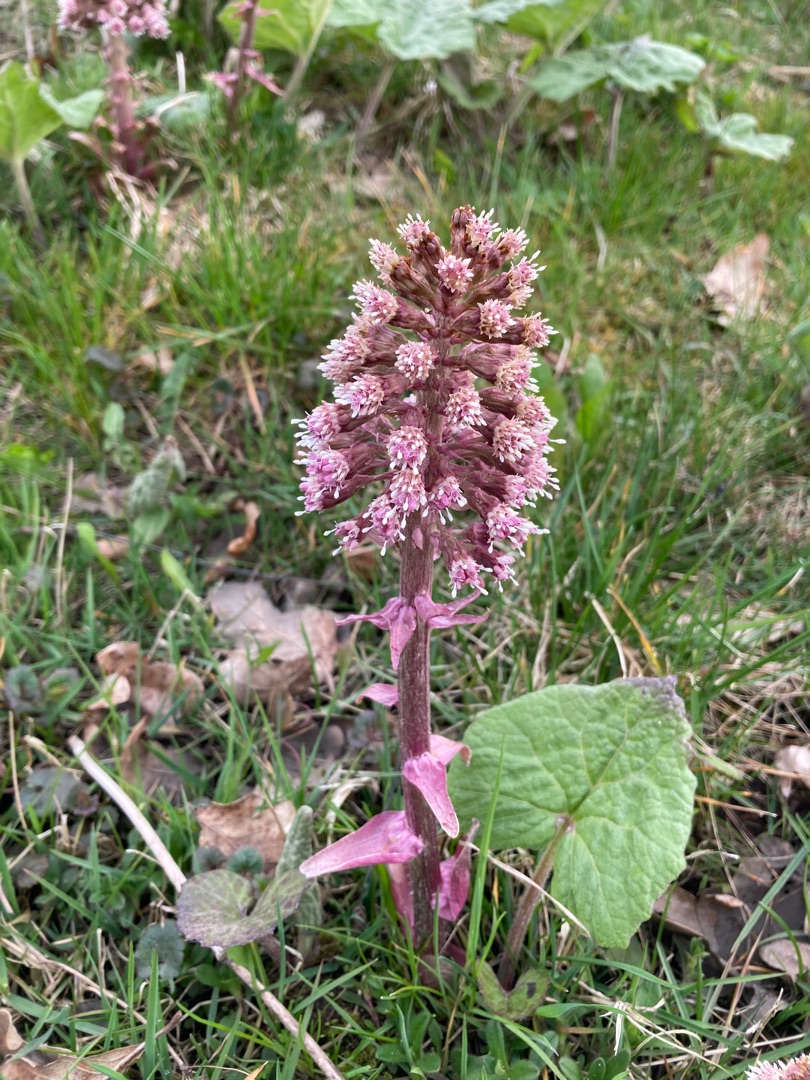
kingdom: Plantae
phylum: Tracheophyta
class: Magnoliopsida
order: Asterales
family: Asteraceae
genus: Petasites
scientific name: Petasites hybridus
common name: Rød hestehov
